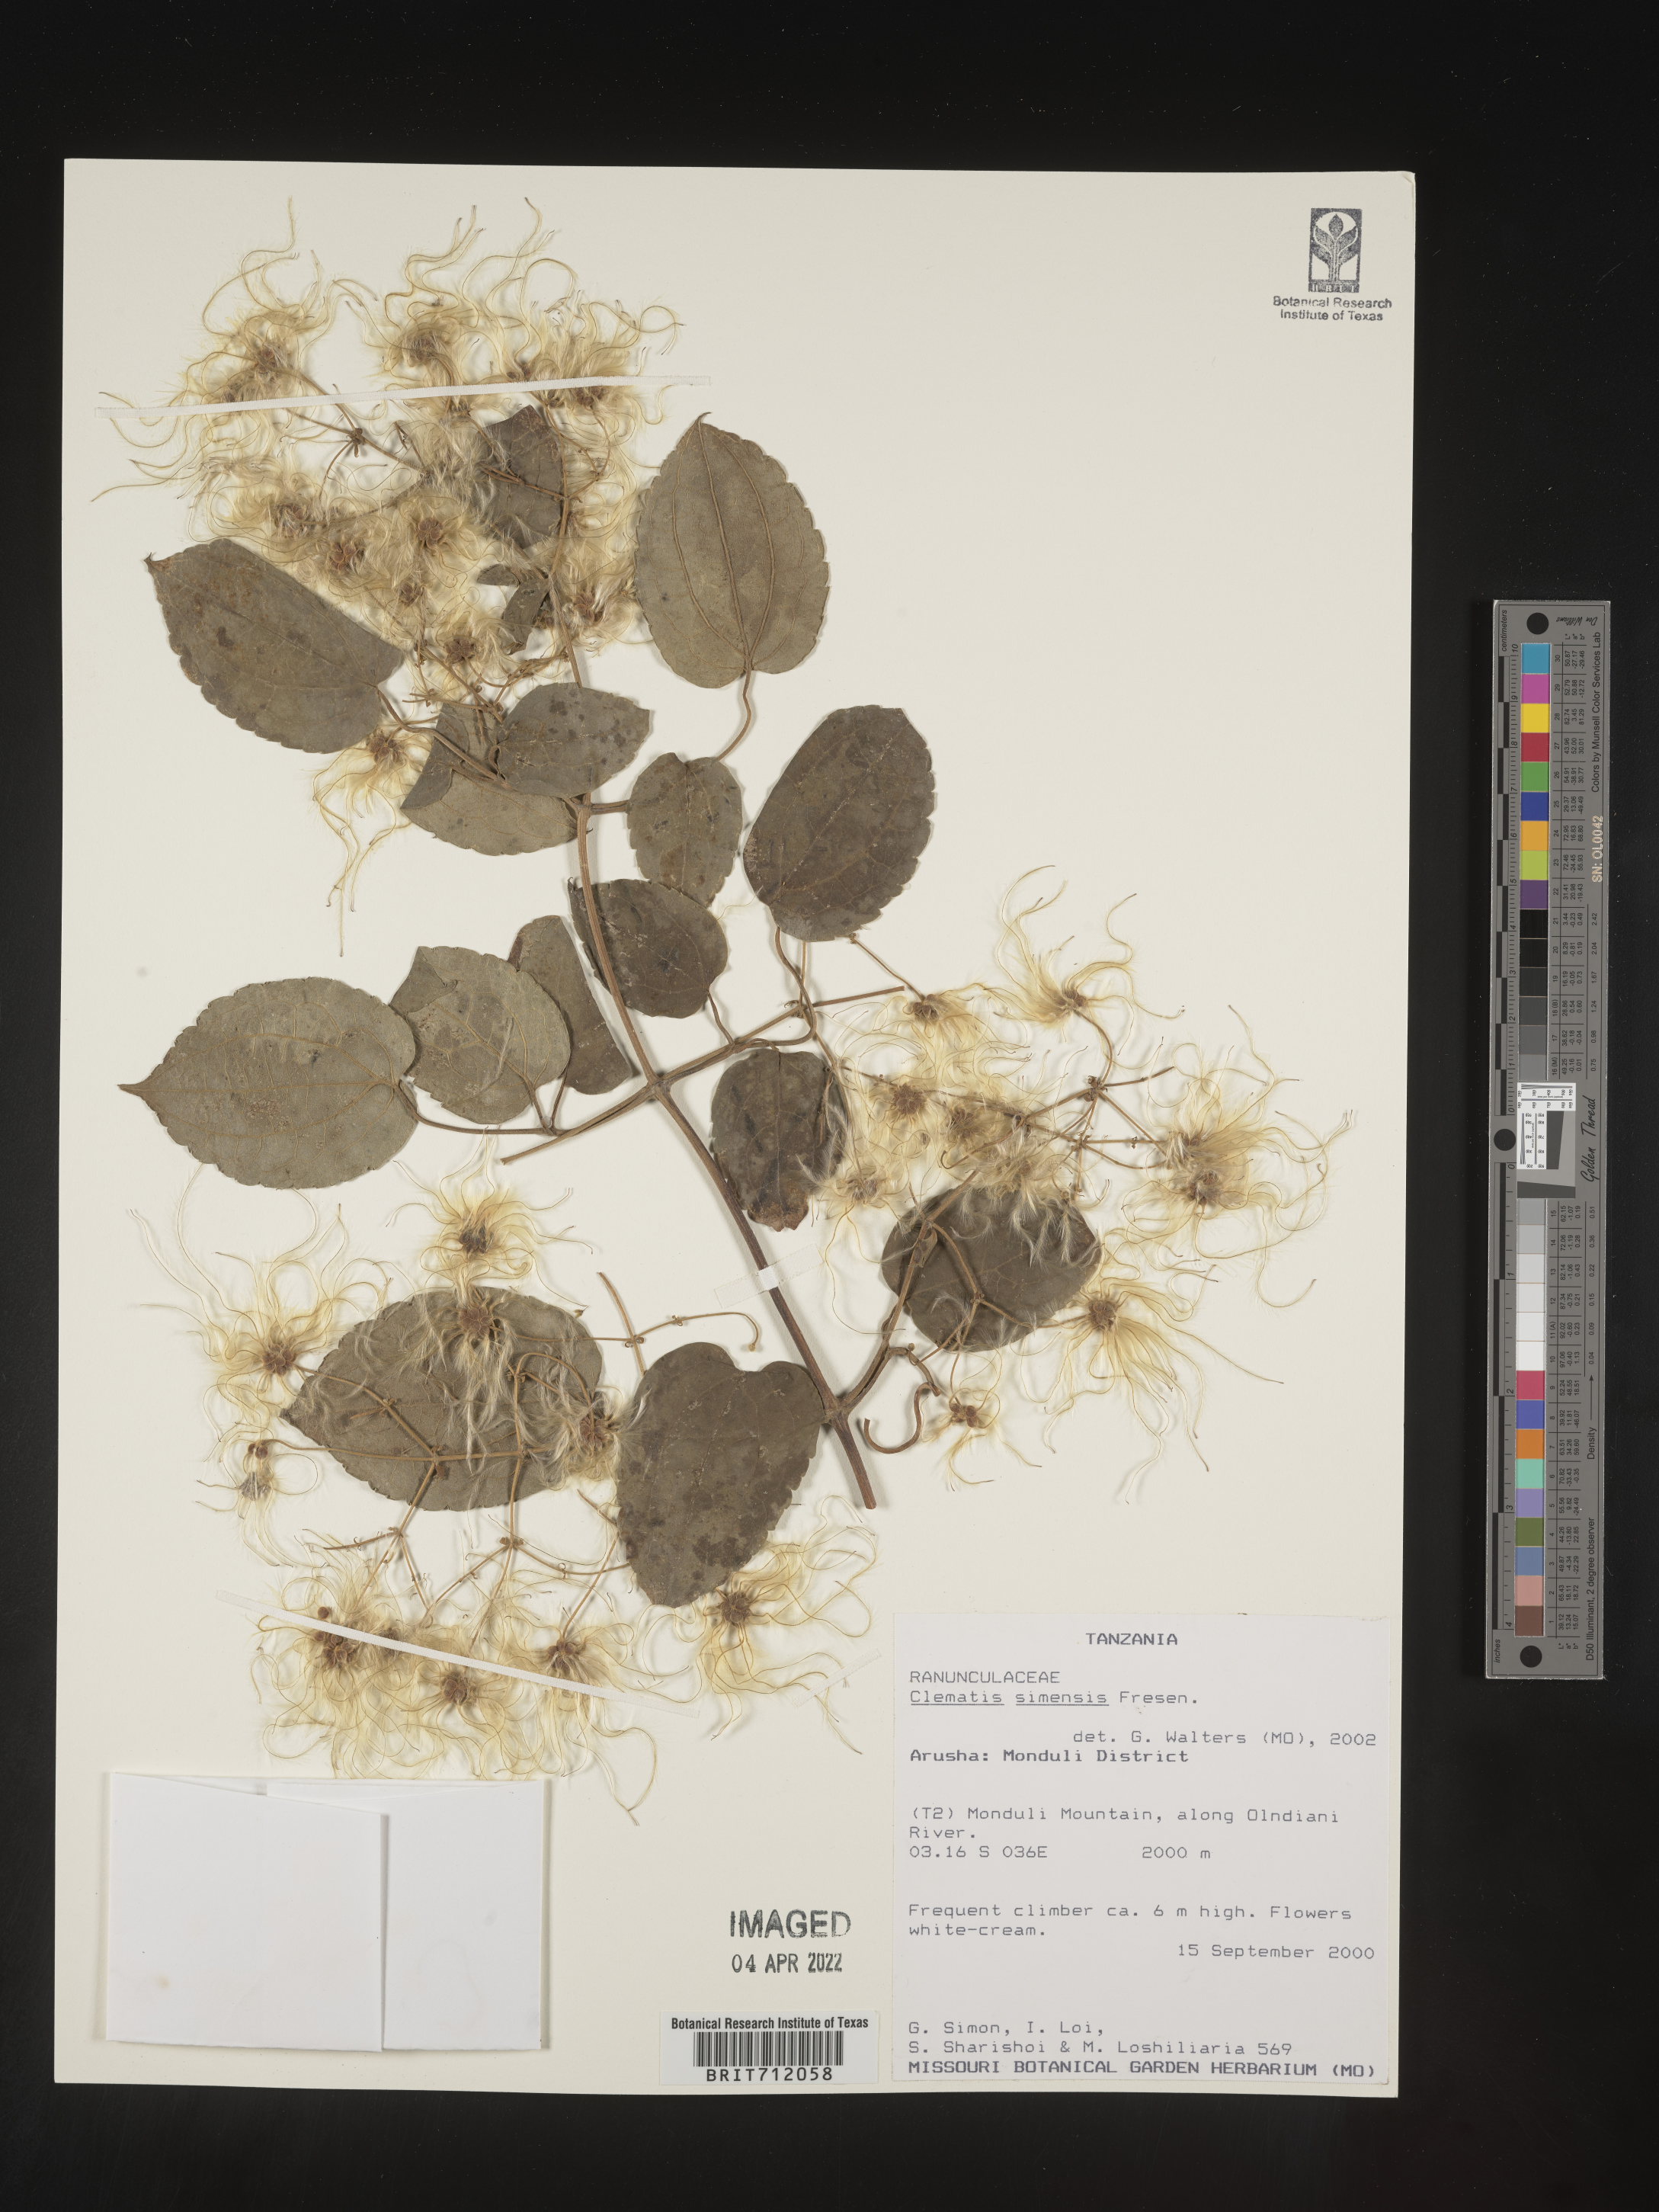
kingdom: Plantae
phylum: Tracheophyta
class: Magnoliopsida
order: Ranunculales
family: Ranunculaceae
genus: Clematis
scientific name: Clematis
